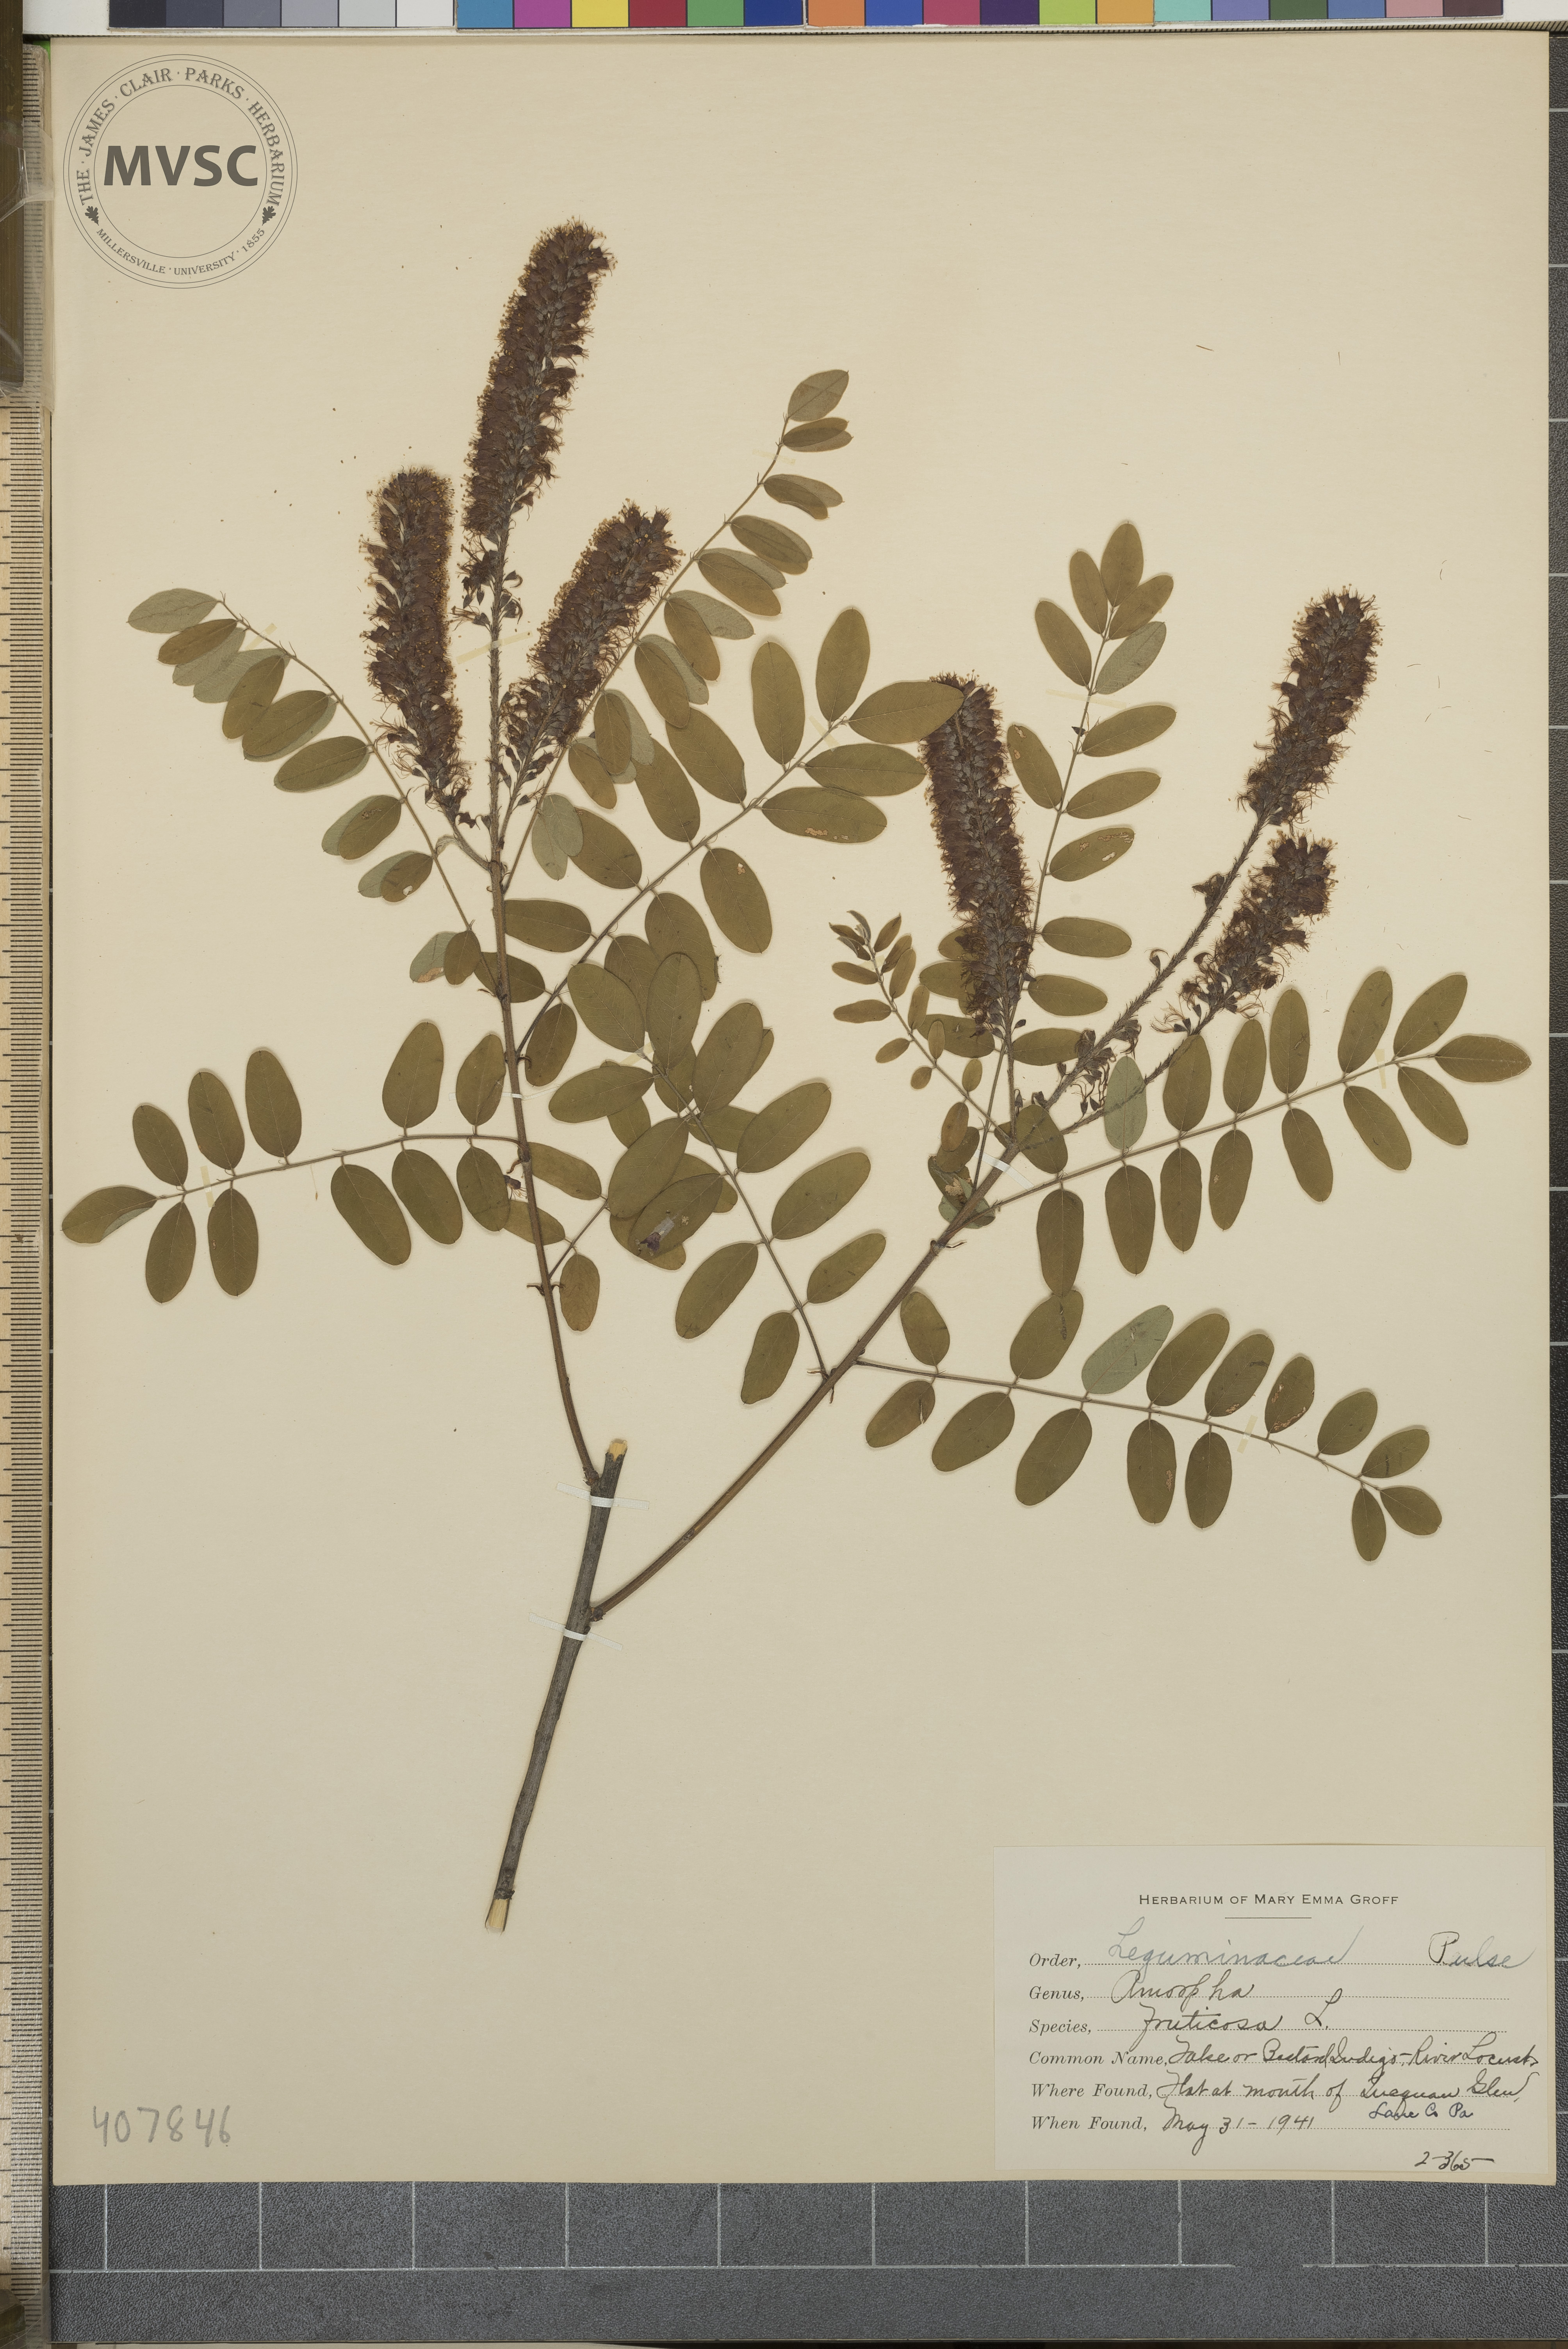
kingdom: Plantae
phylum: Tracheophyta
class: Magnoliopsida
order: Fabales
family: Fabaceae
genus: Amorpha
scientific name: Amorpha fruticosa
